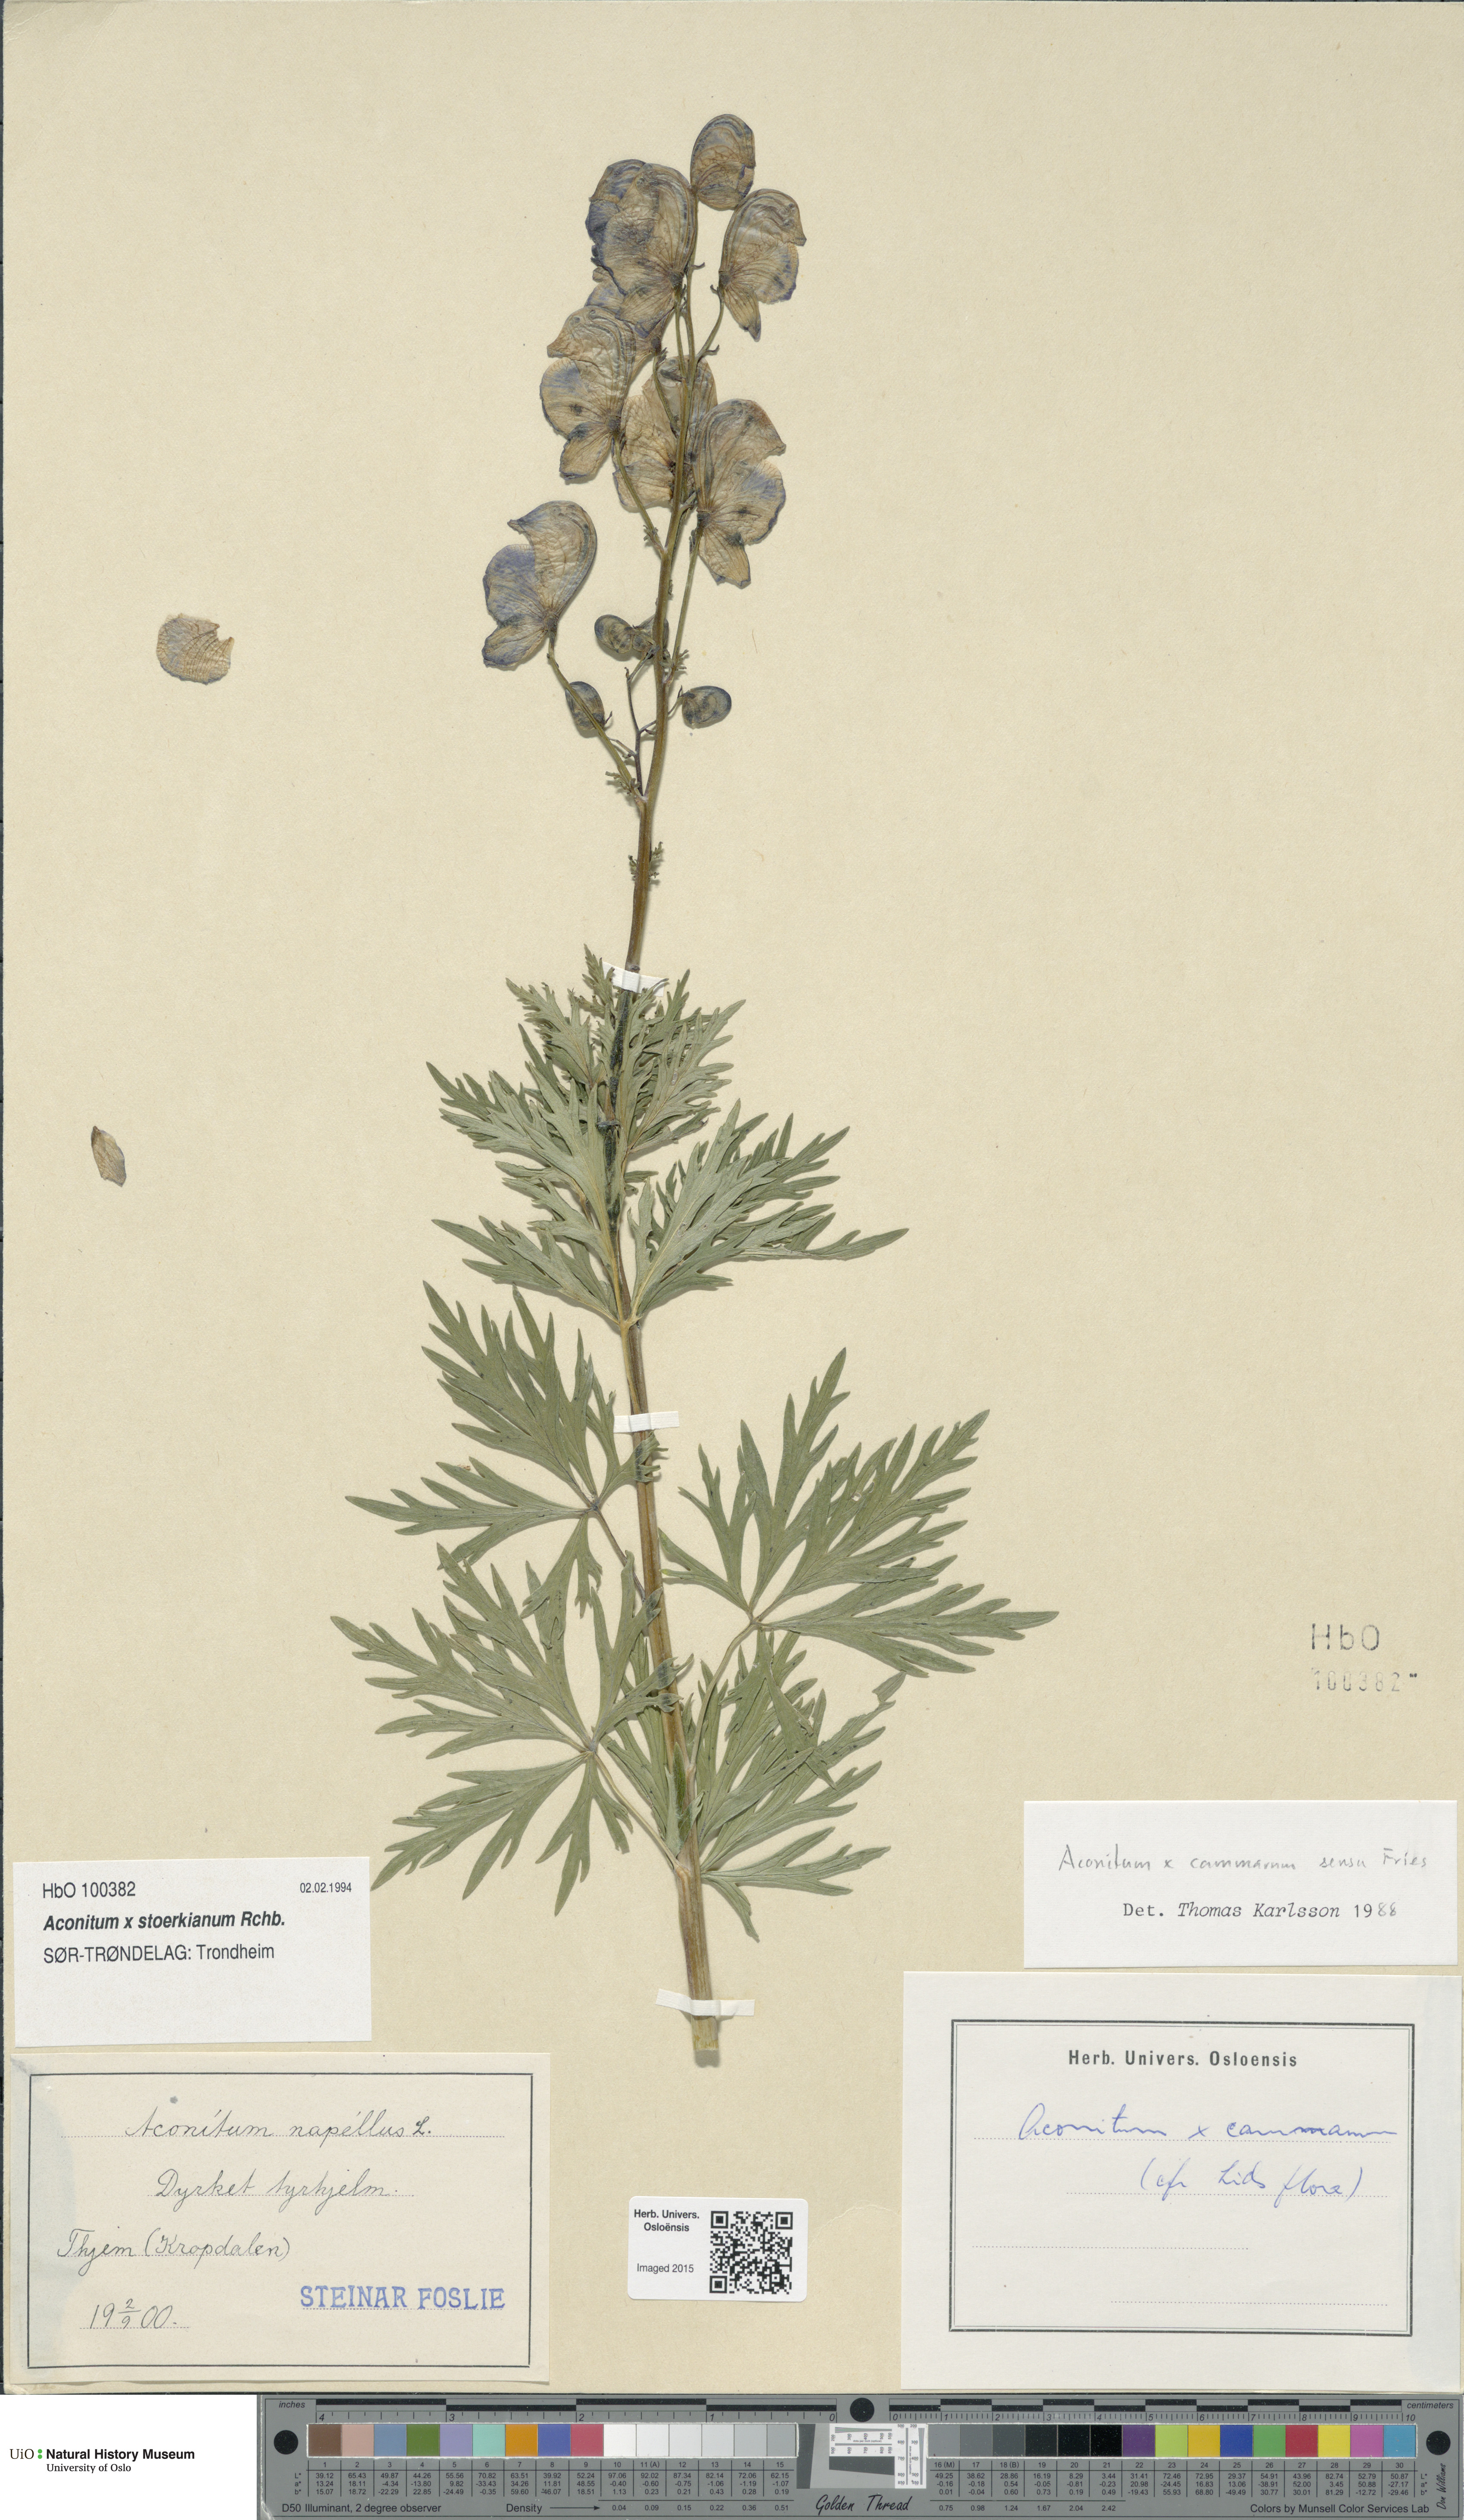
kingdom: Plantae
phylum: Tracheophyta
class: Magnoliopsida
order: Ranunculales
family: Ranunculaceae
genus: Aconitum
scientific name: Aconitum cammarum
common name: Hybrid monk's-hood
